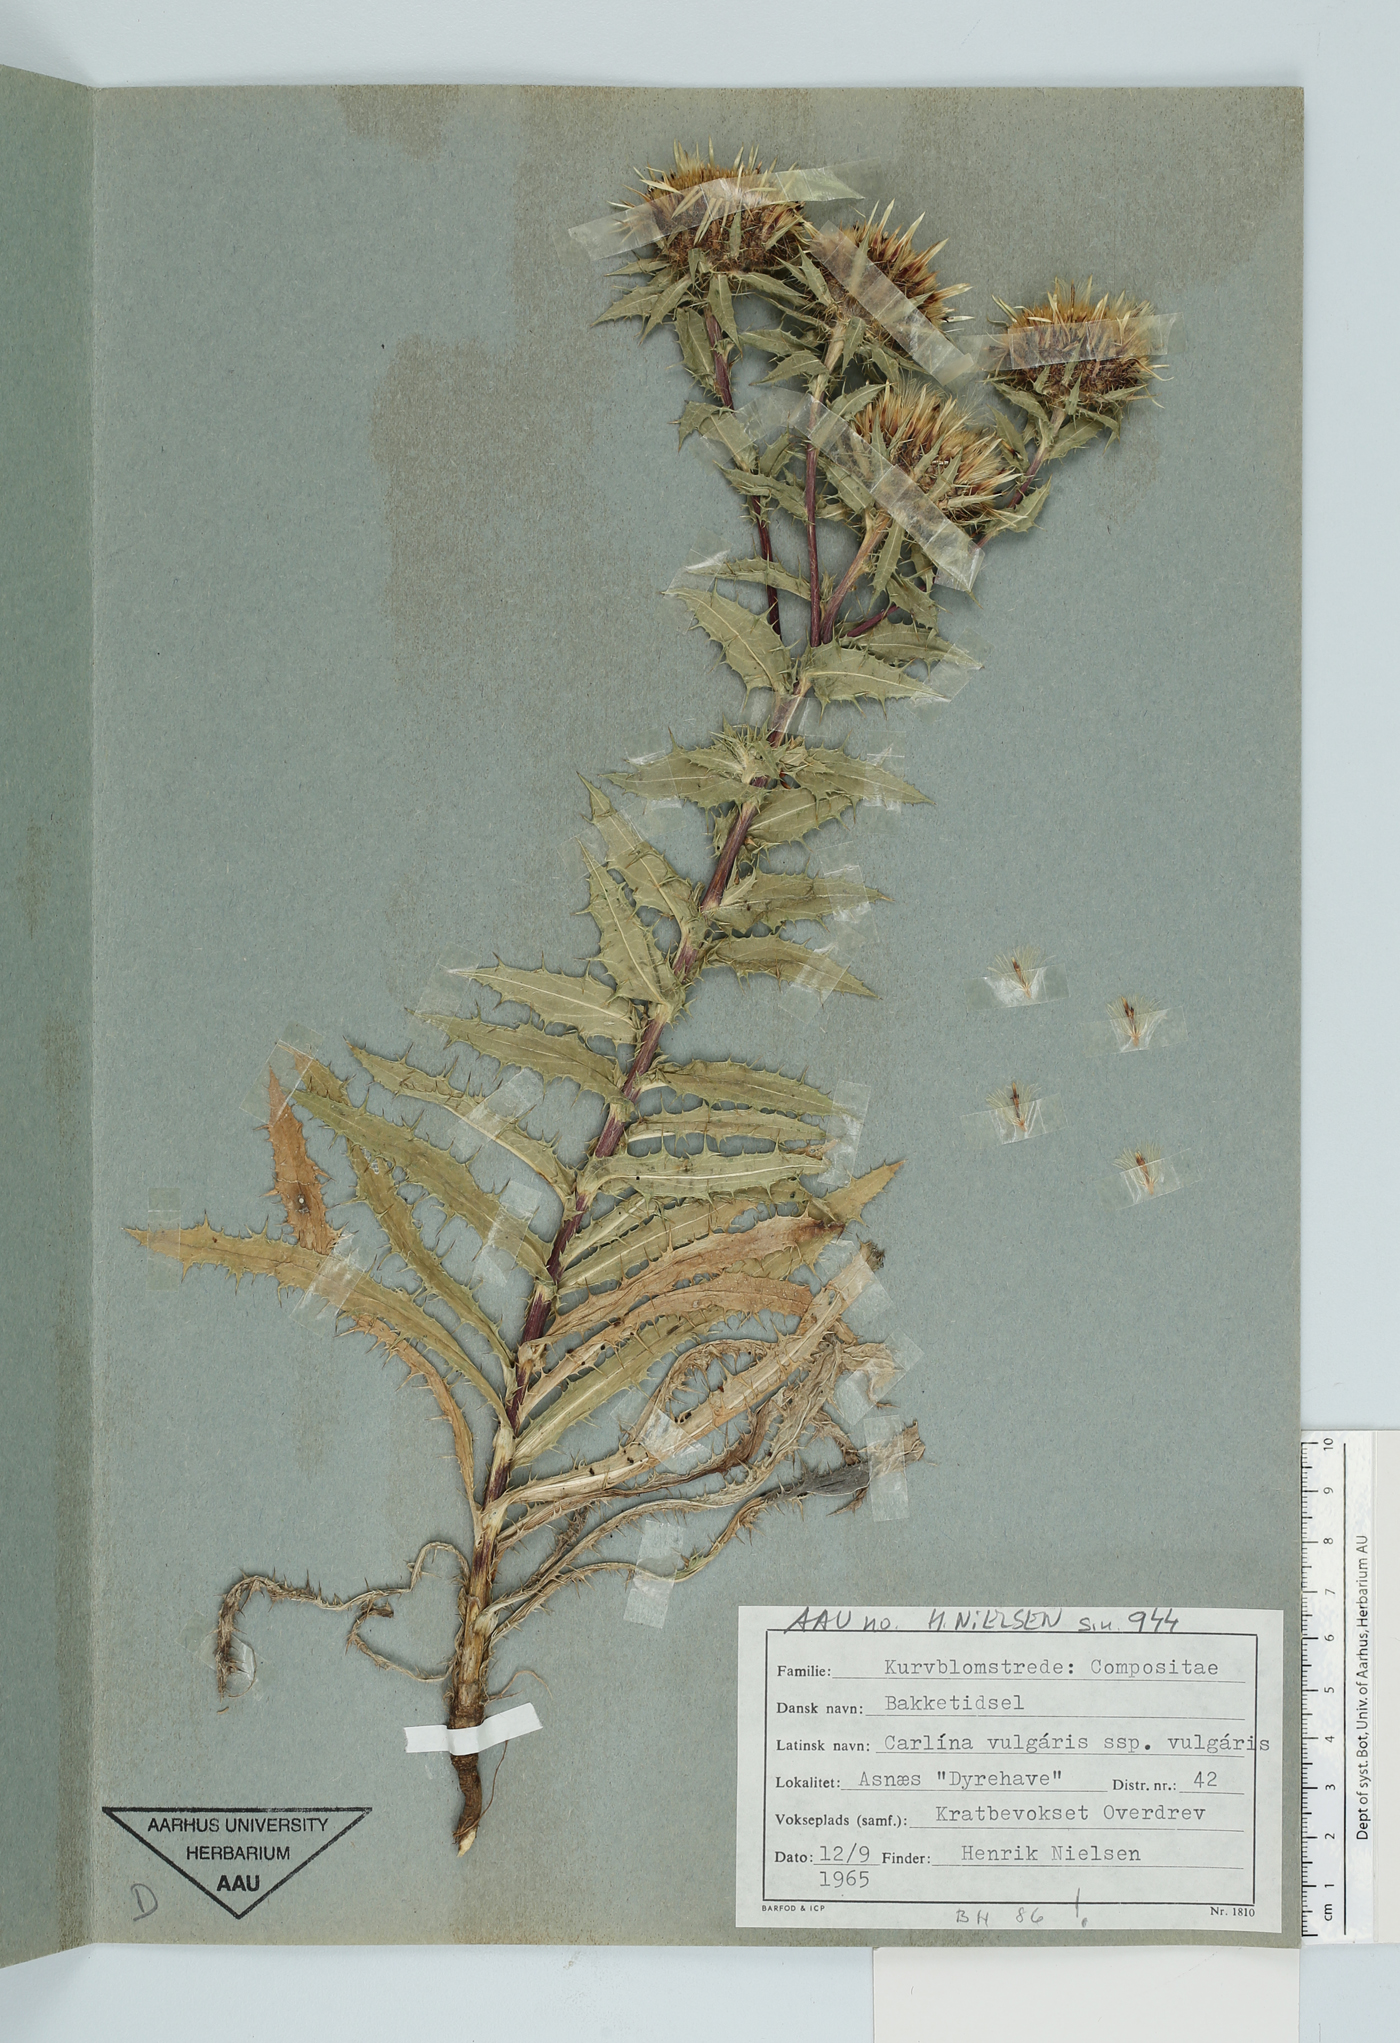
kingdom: Plantae
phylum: Tracheophyta
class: Magnoliopsida
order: Asterales
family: Asteraceae
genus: Carlina
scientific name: Carlina vulgaris
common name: Carline thistle
